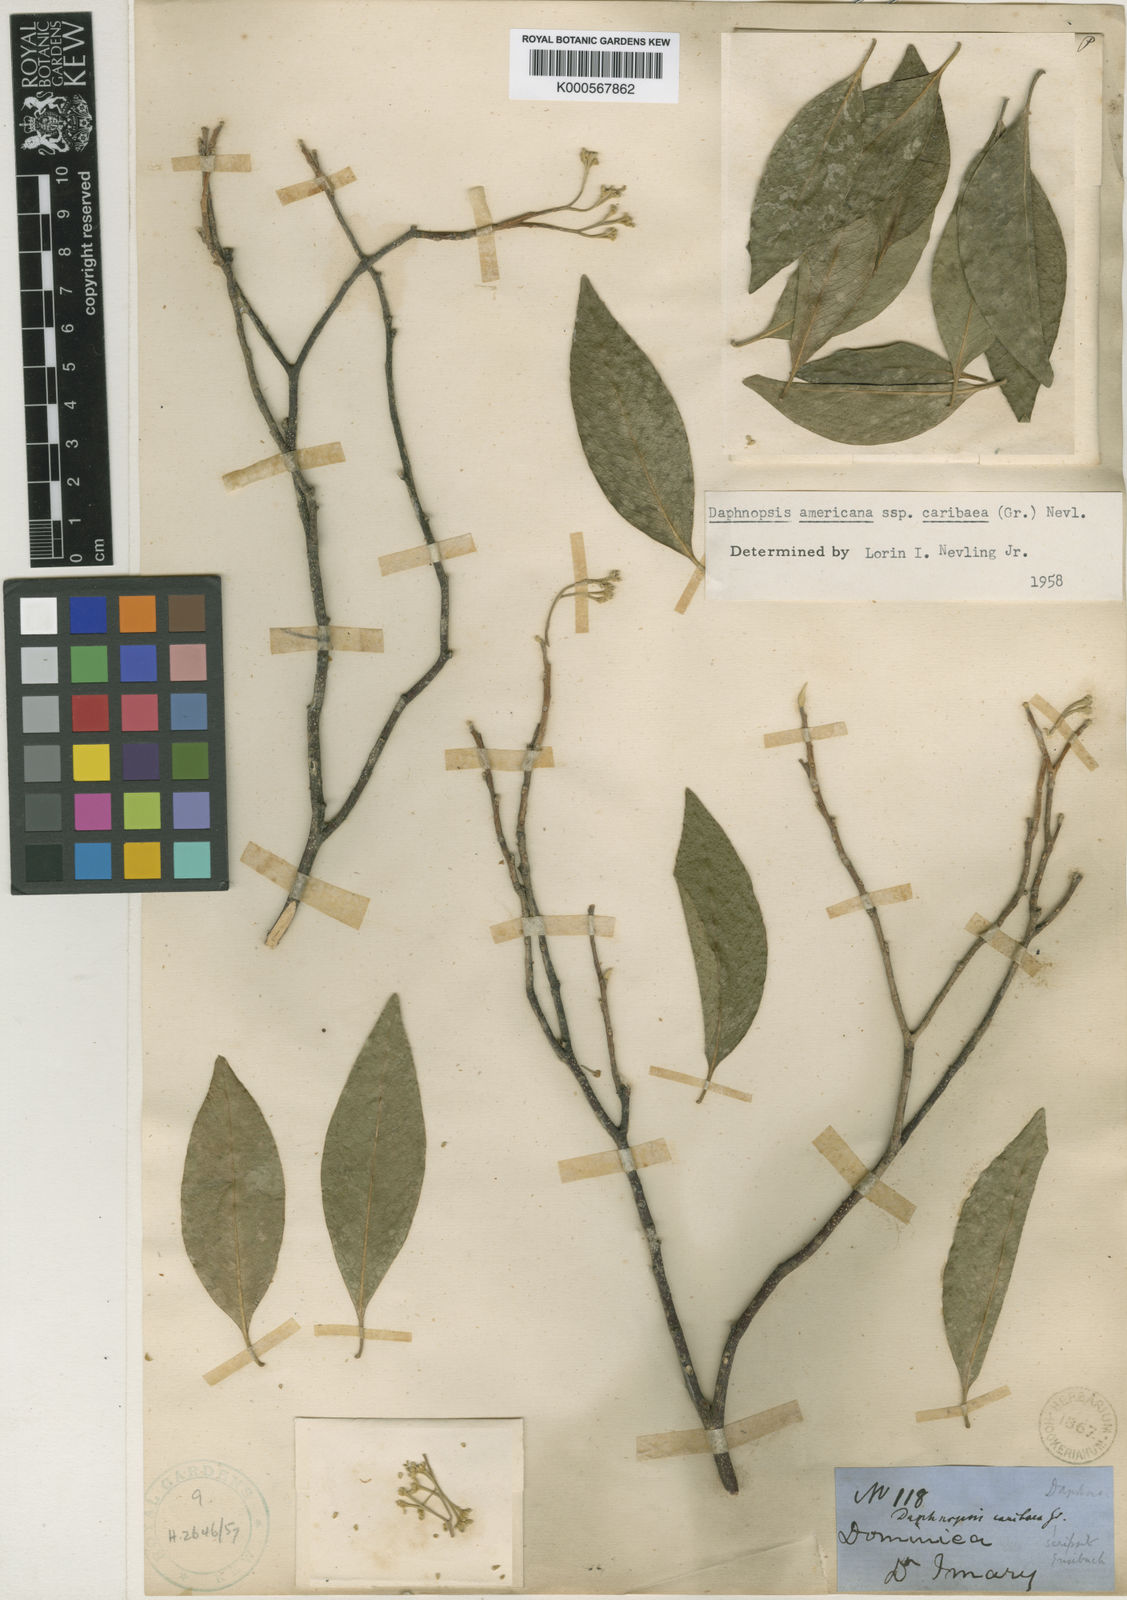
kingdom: Plantae
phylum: Tracheophyta
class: Magnoliopsida
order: Malvales
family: Thymelaeaceae
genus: Daphnopsis
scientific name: Daphnopsis americana
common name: Maho
